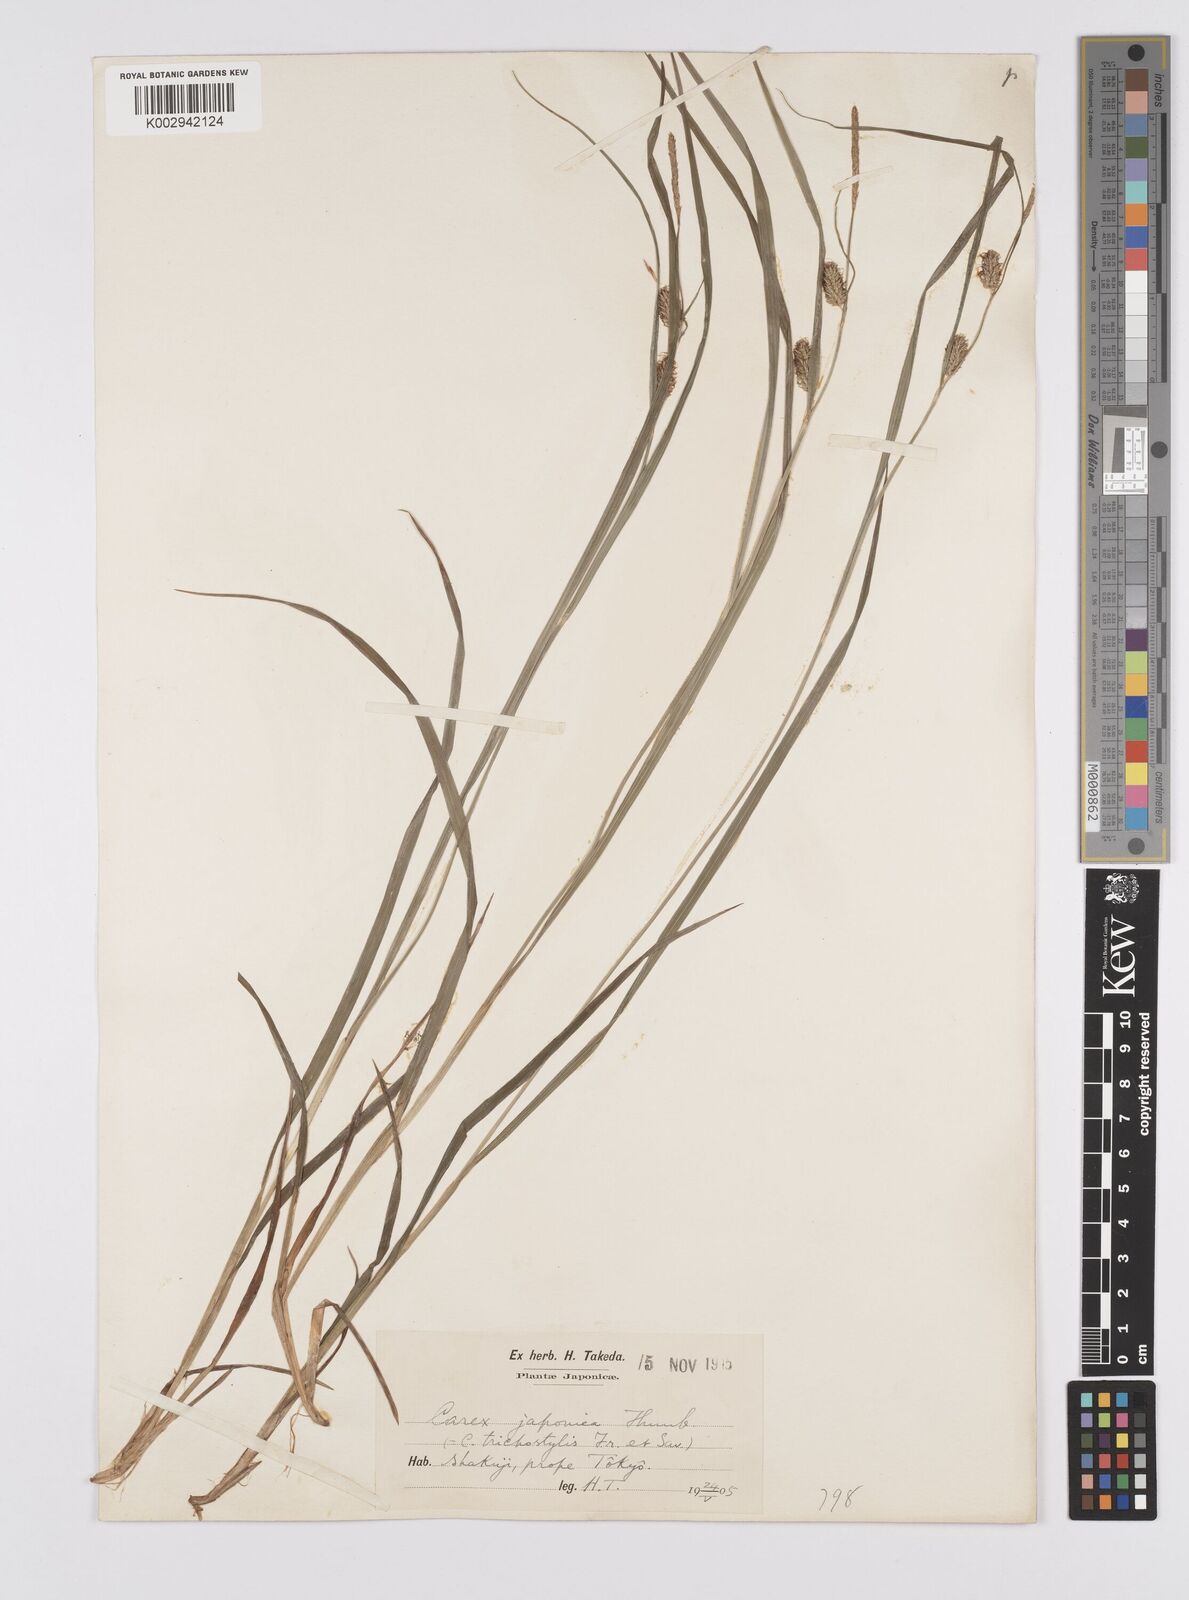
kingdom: Plantae
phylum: Tracheophyta
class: Liliopsida
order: Poales
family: Cyperaceae
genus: Carex
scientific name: Carex japonica
